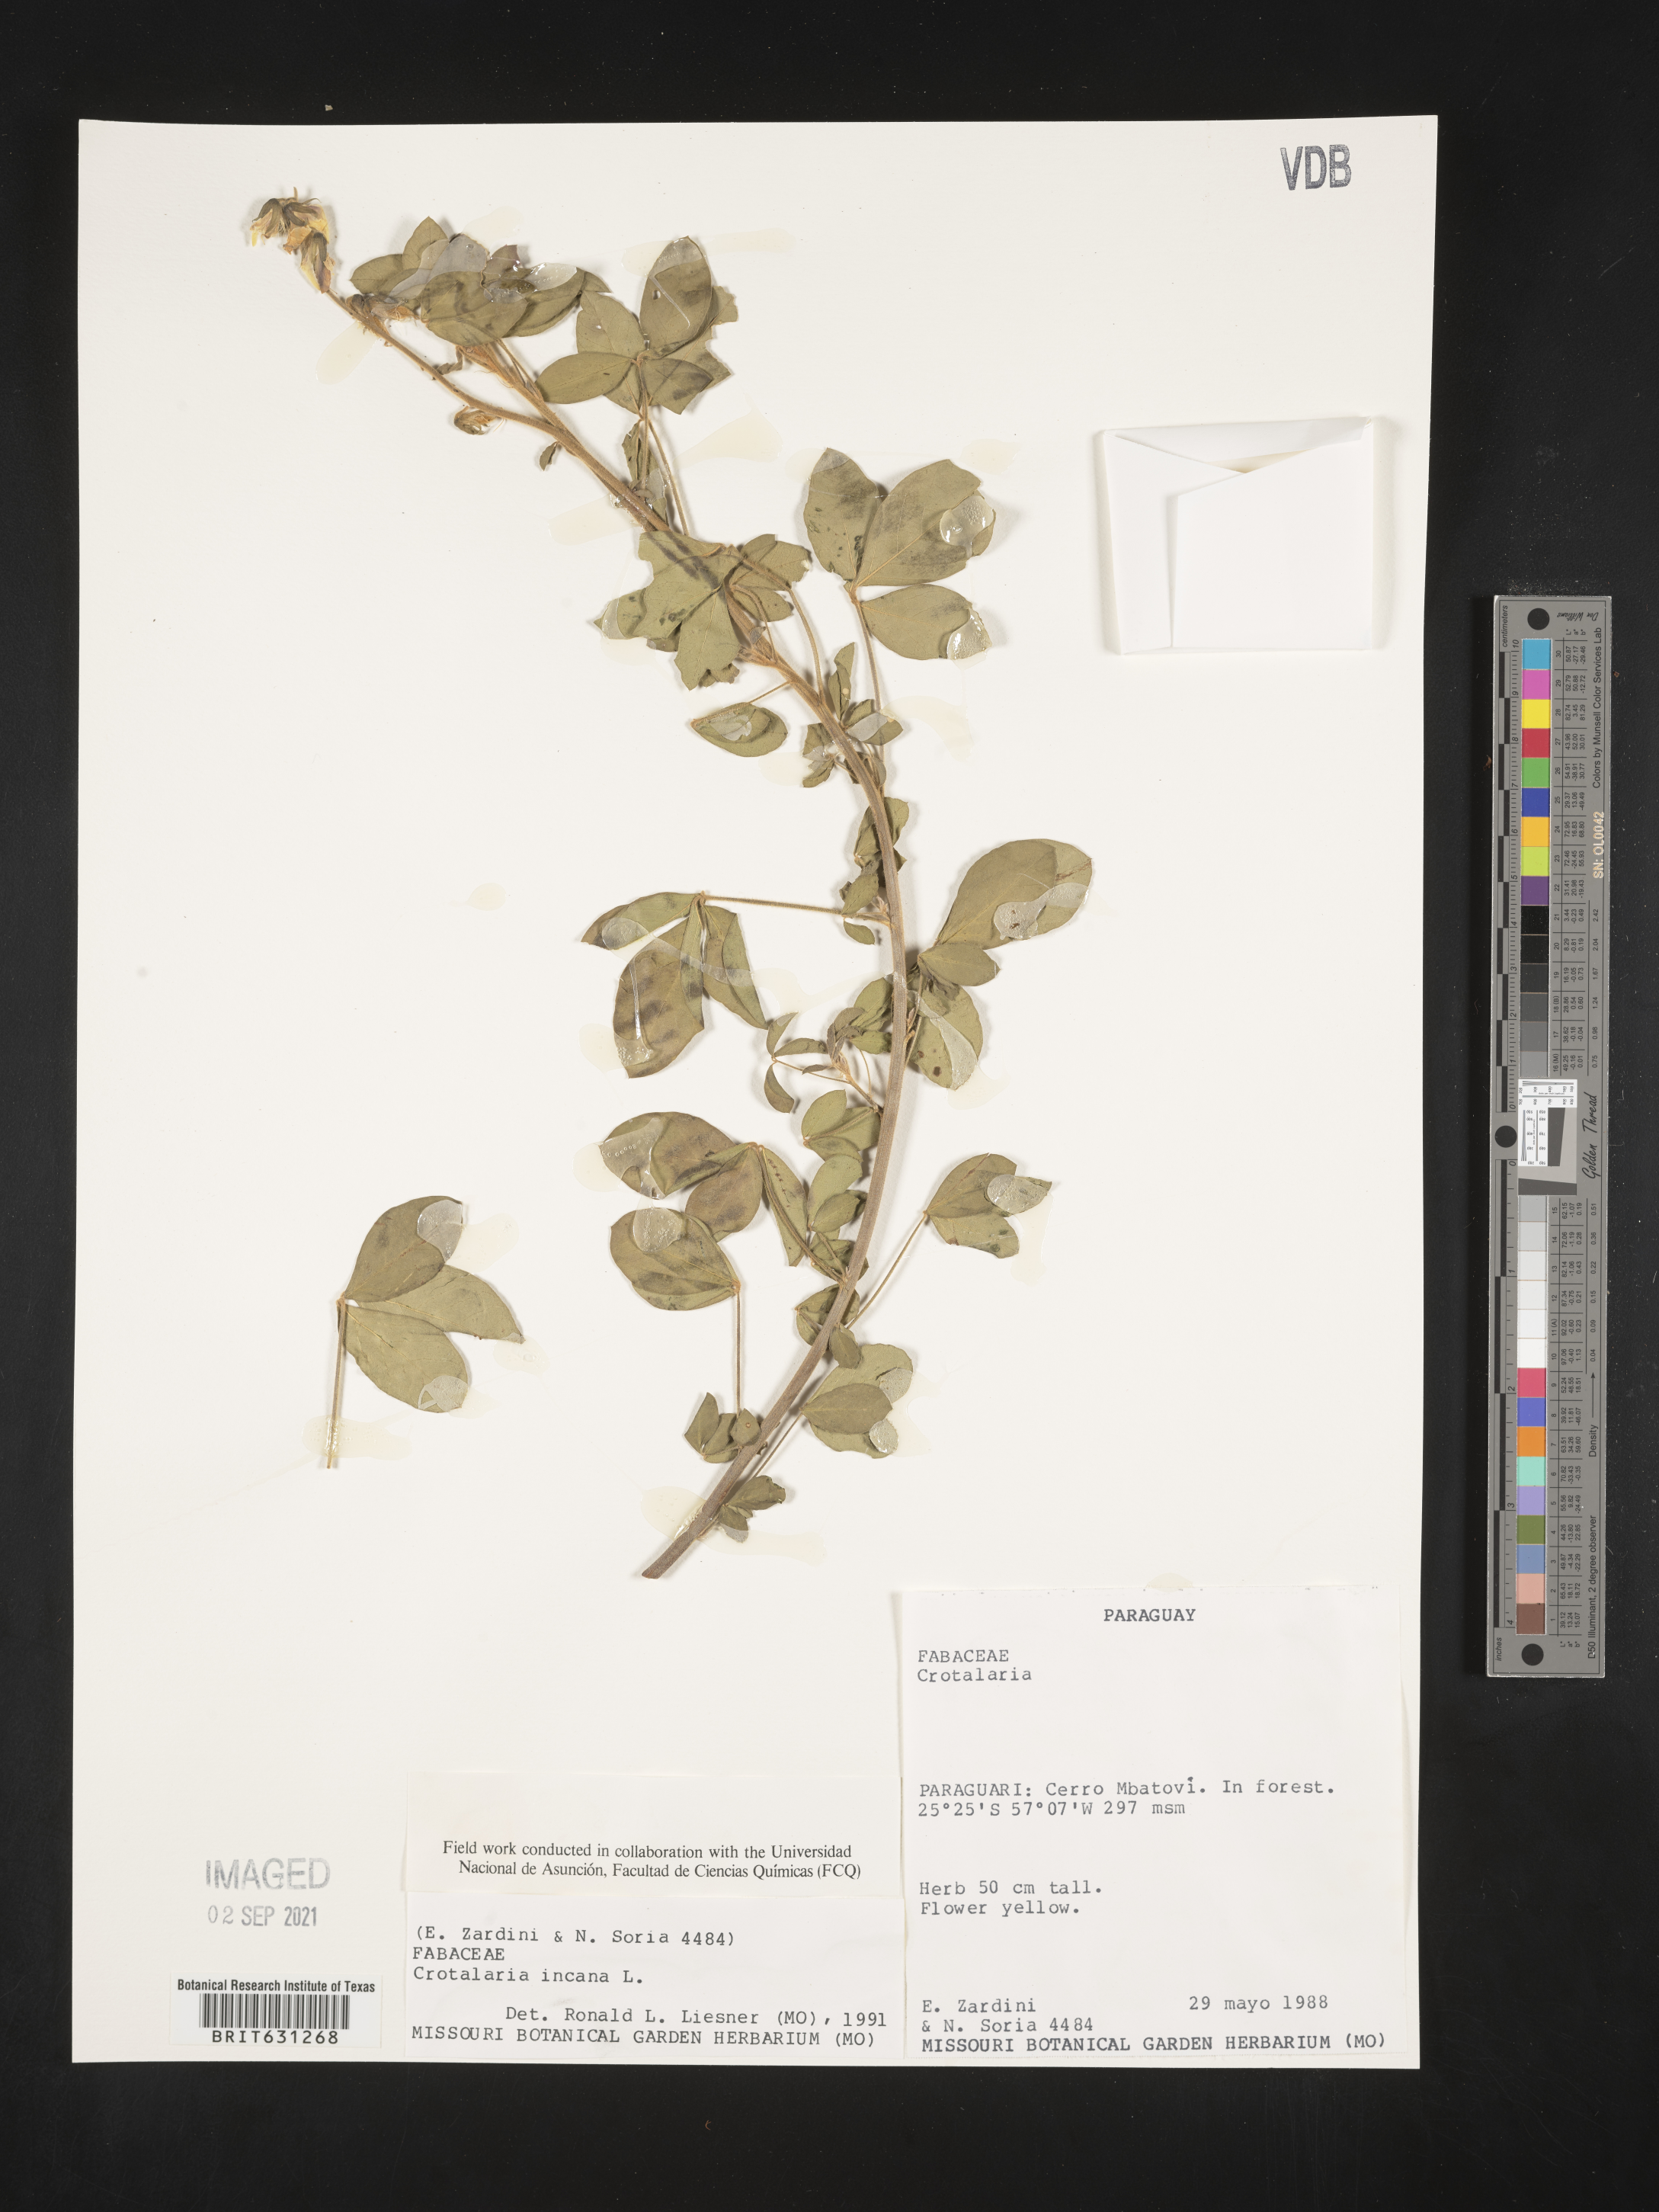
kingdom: Plantae
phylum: Tracheophyta
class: Magnoliopsida
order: Fabales
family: Fabaceae
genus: Crotalaria
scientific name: Crotalaria incana
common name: Shakeshake
